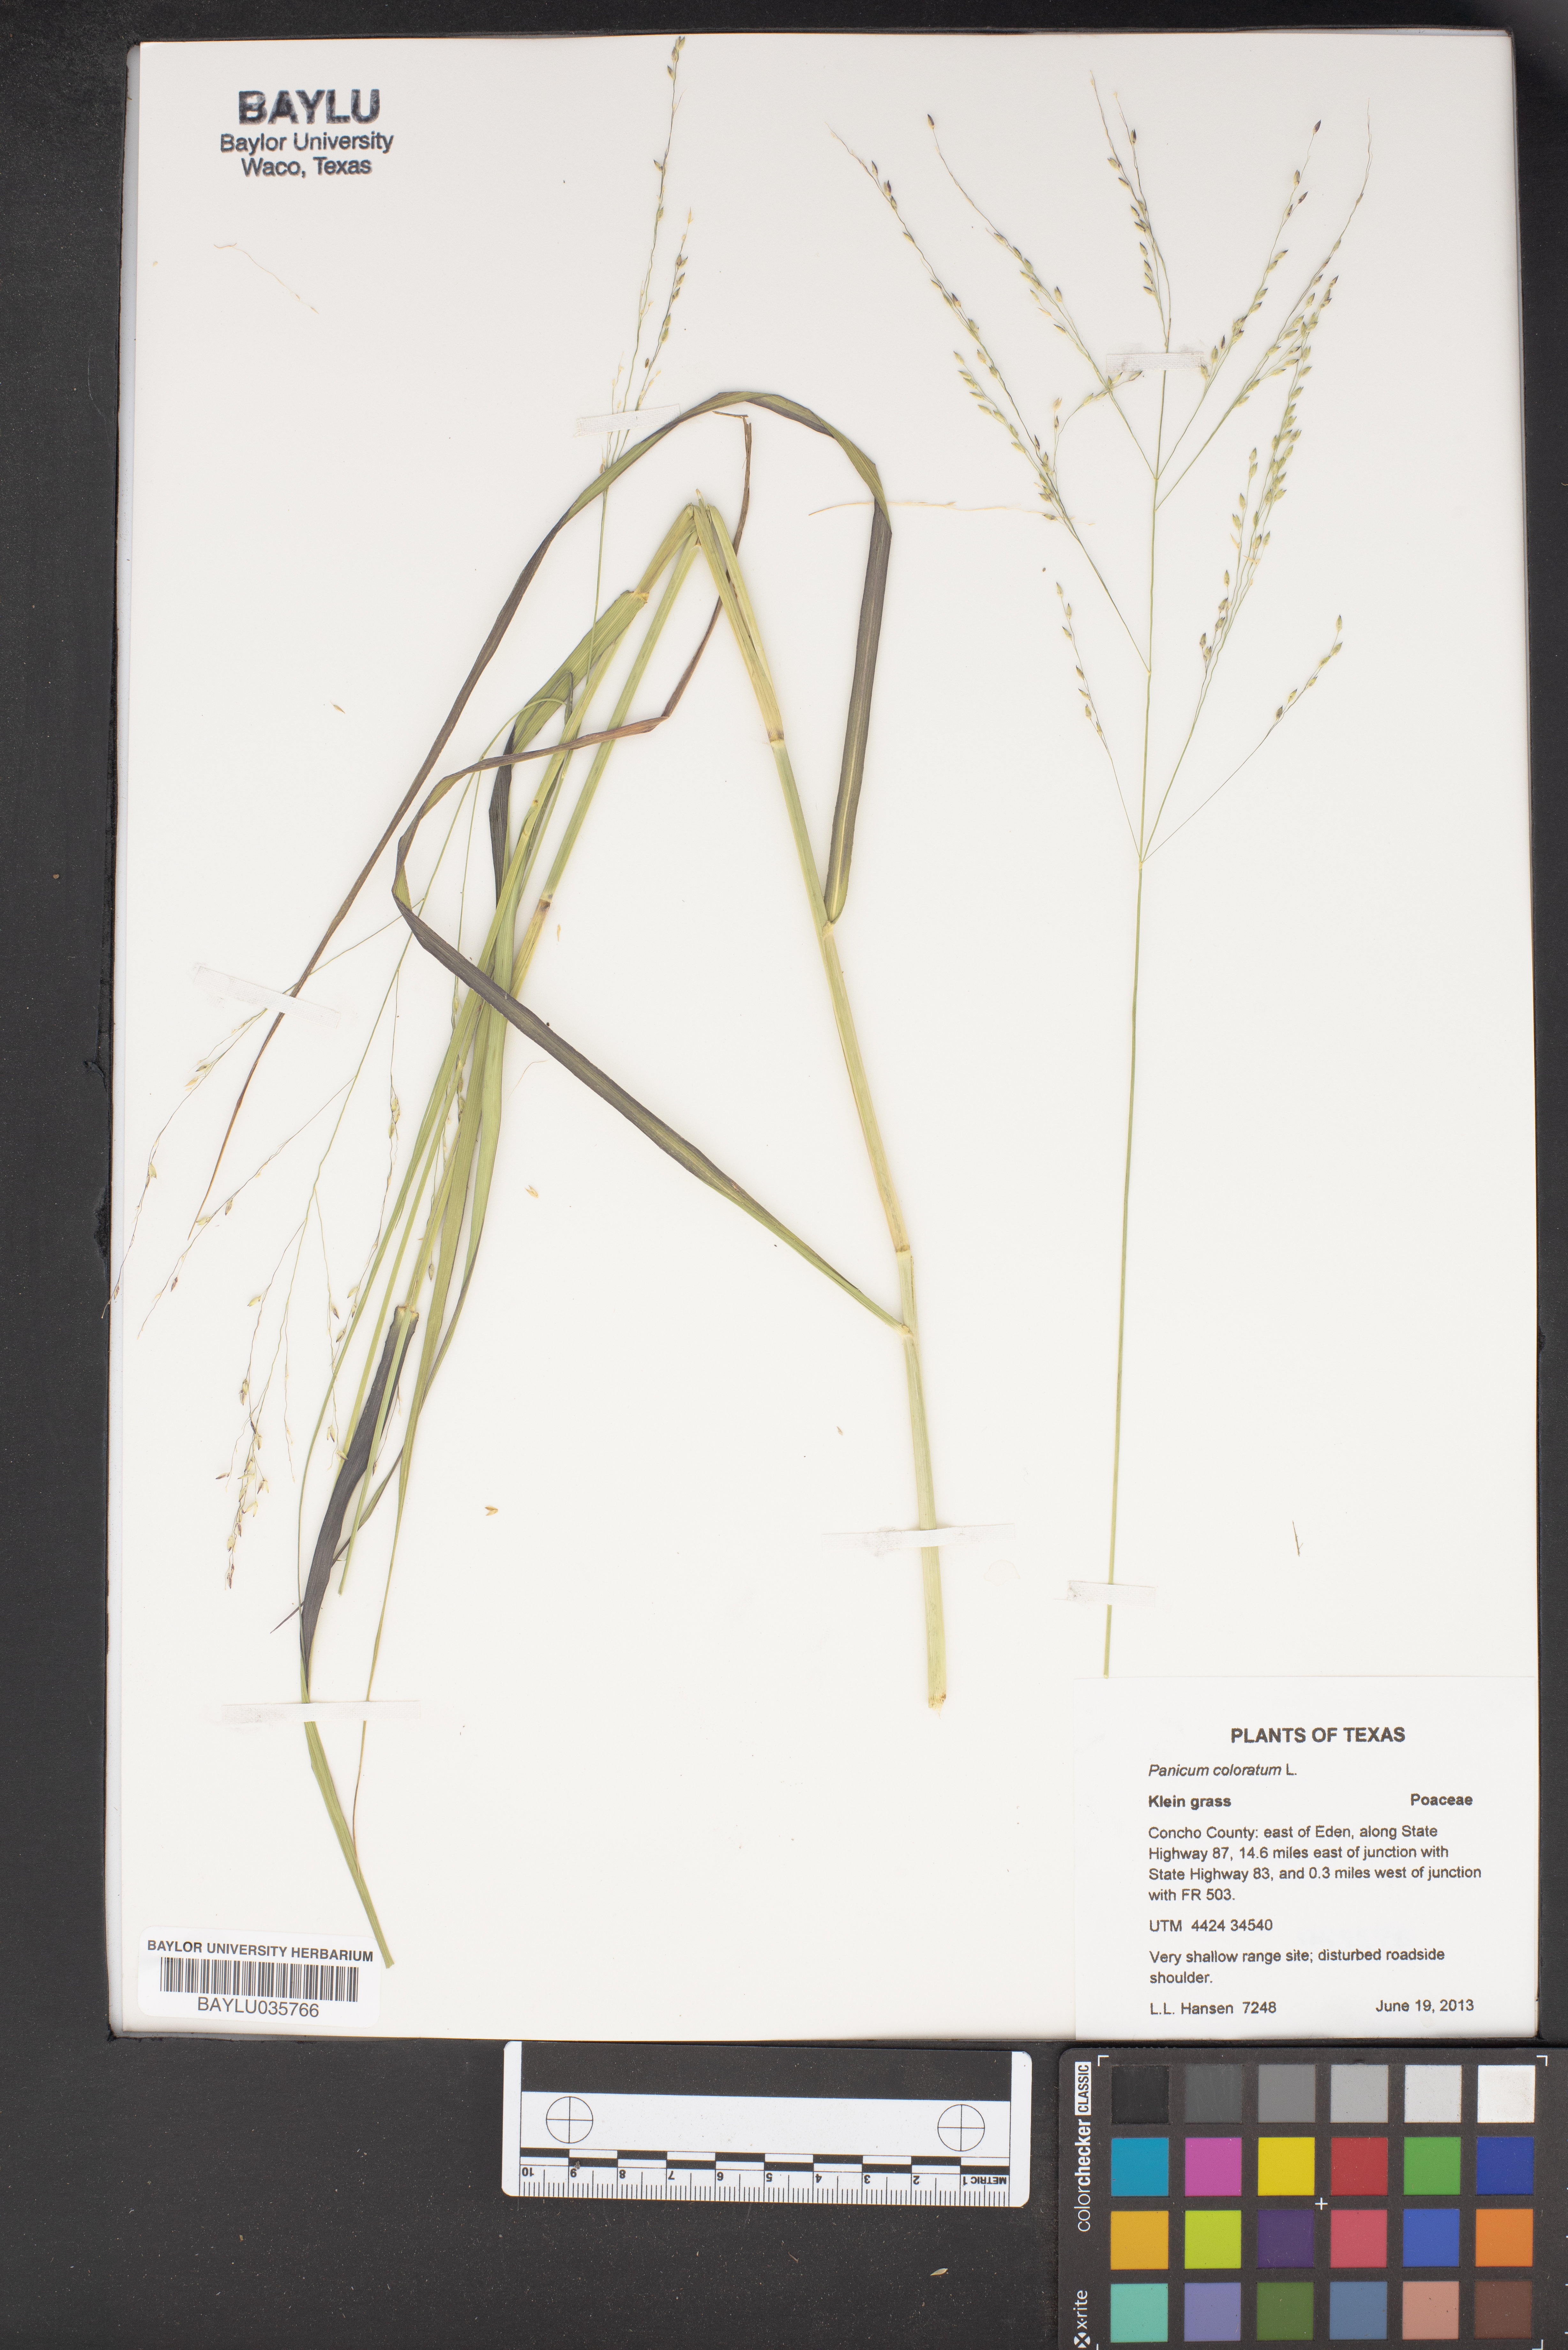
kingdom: Plantae
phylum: Tracheophyta
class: Liliopsida
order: Poales
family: Poaceae
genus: Panicum
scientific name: Panicum coloratum
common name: Kleingrass
